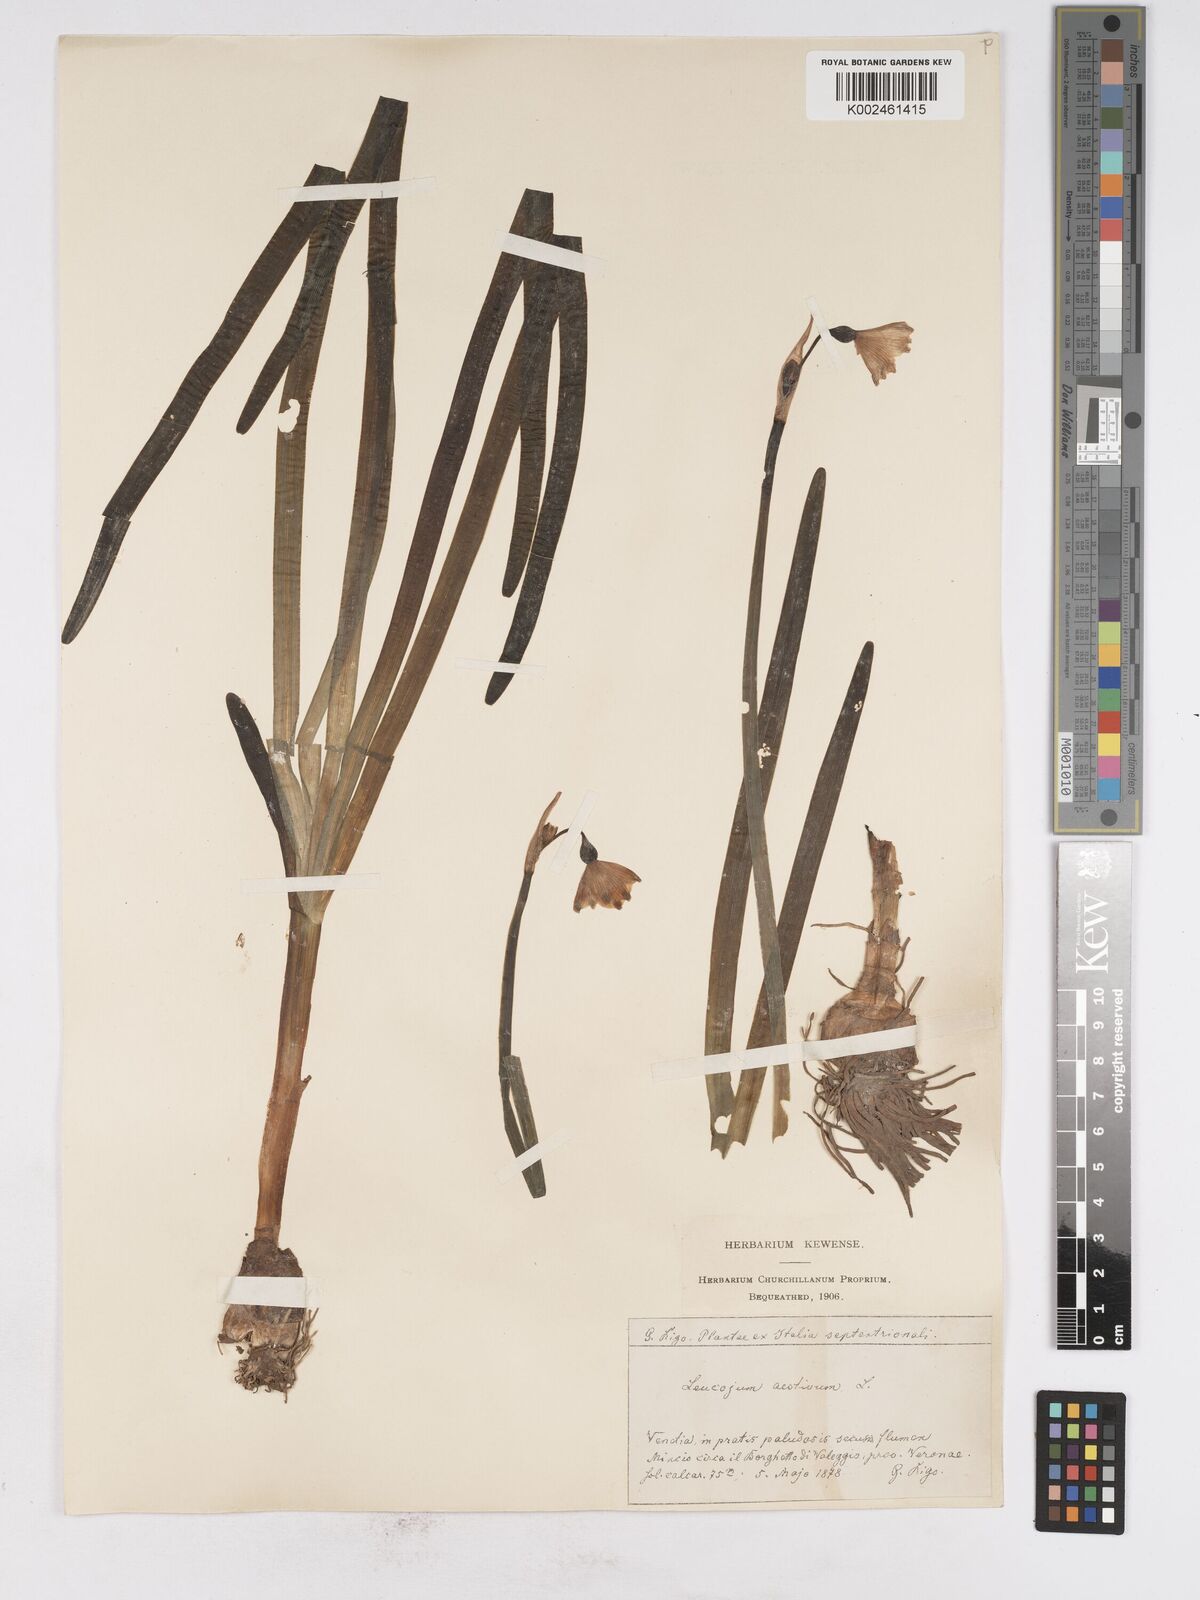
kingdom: Plantae
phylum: Tracheophyta
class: Liliopsida
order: Asparagales
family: Amaryllidaceae
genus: Leucojum
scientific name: Leucojum aestivum
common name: Summer snowflake
